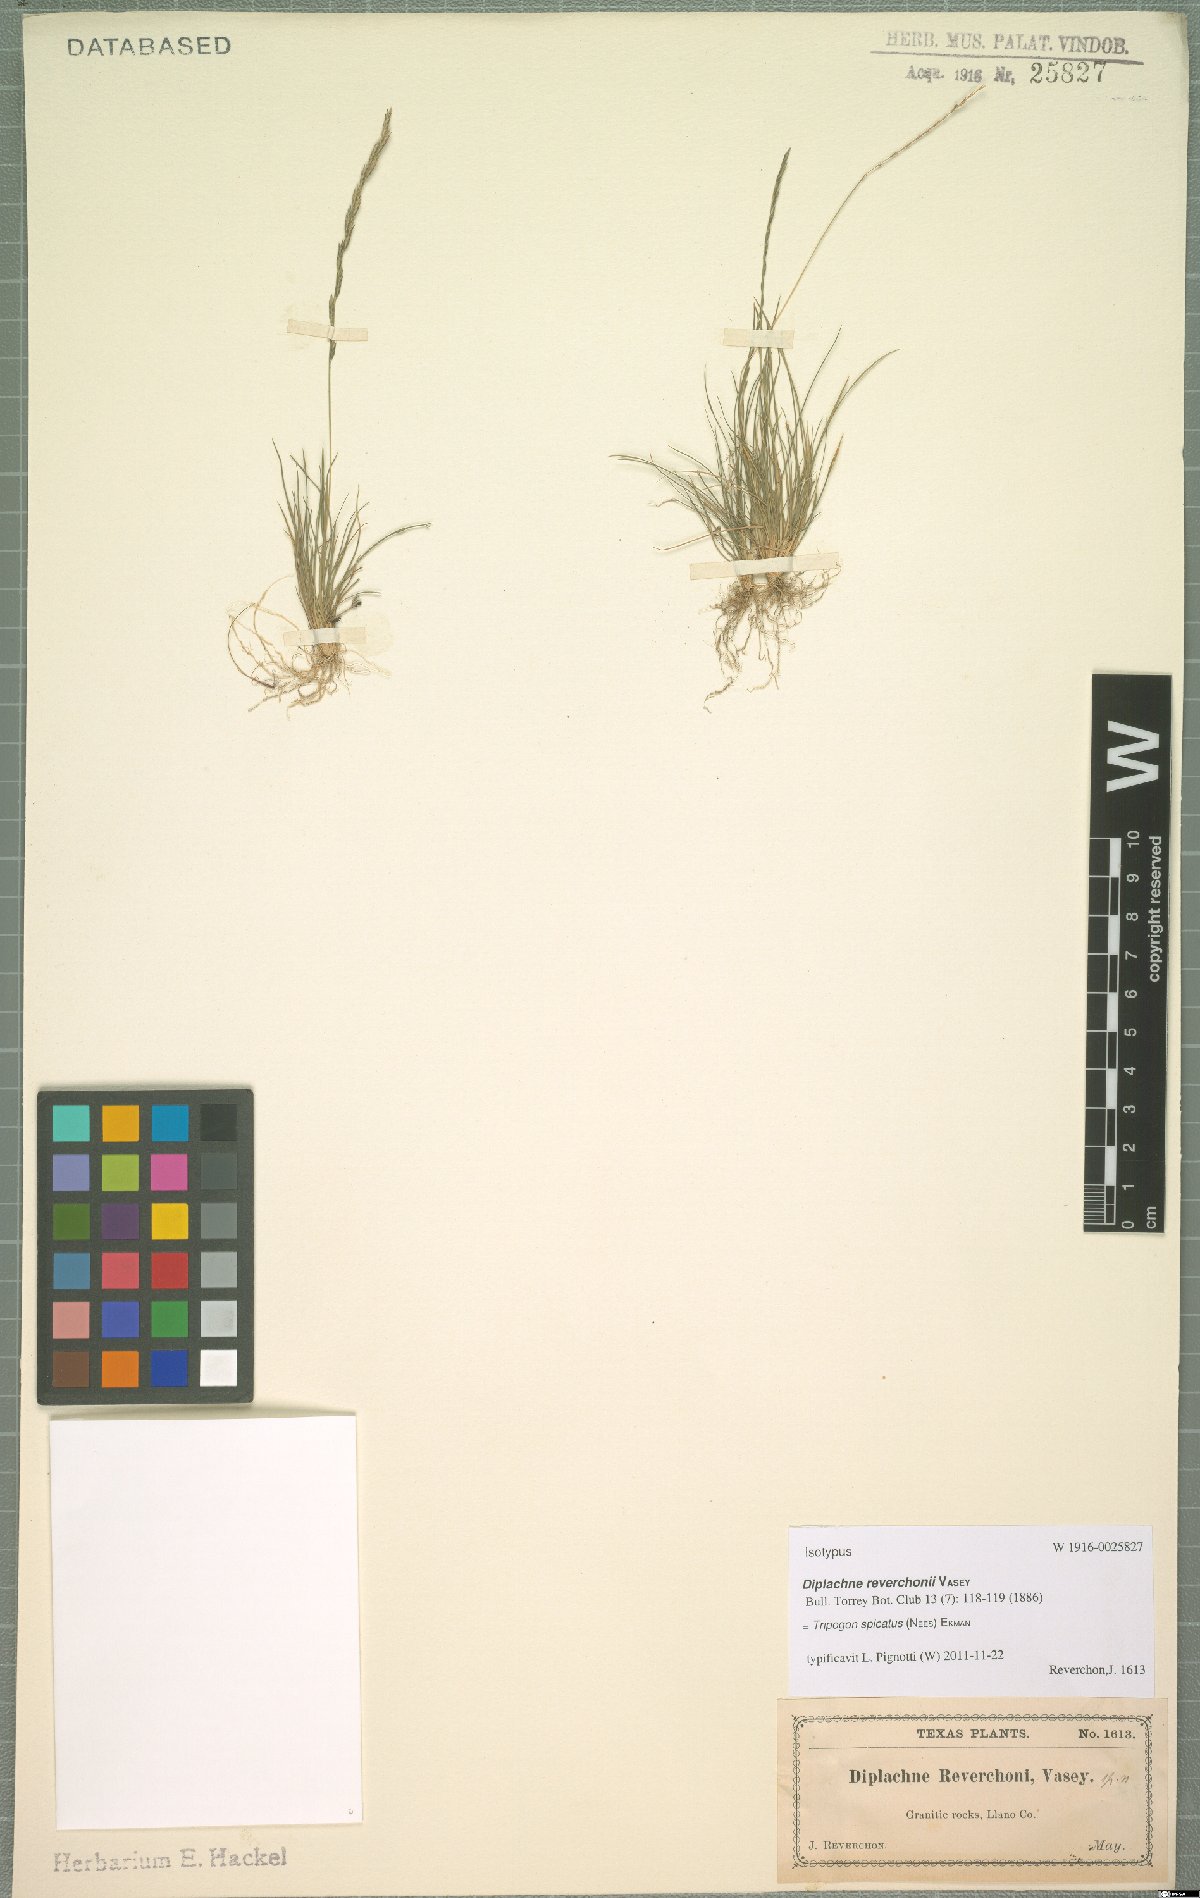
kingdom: Plantae
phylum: Tracheophyta
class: Liliopsida
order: Poales
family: Poaceae
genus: Tripogonella
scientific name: Tripogonella spicata
